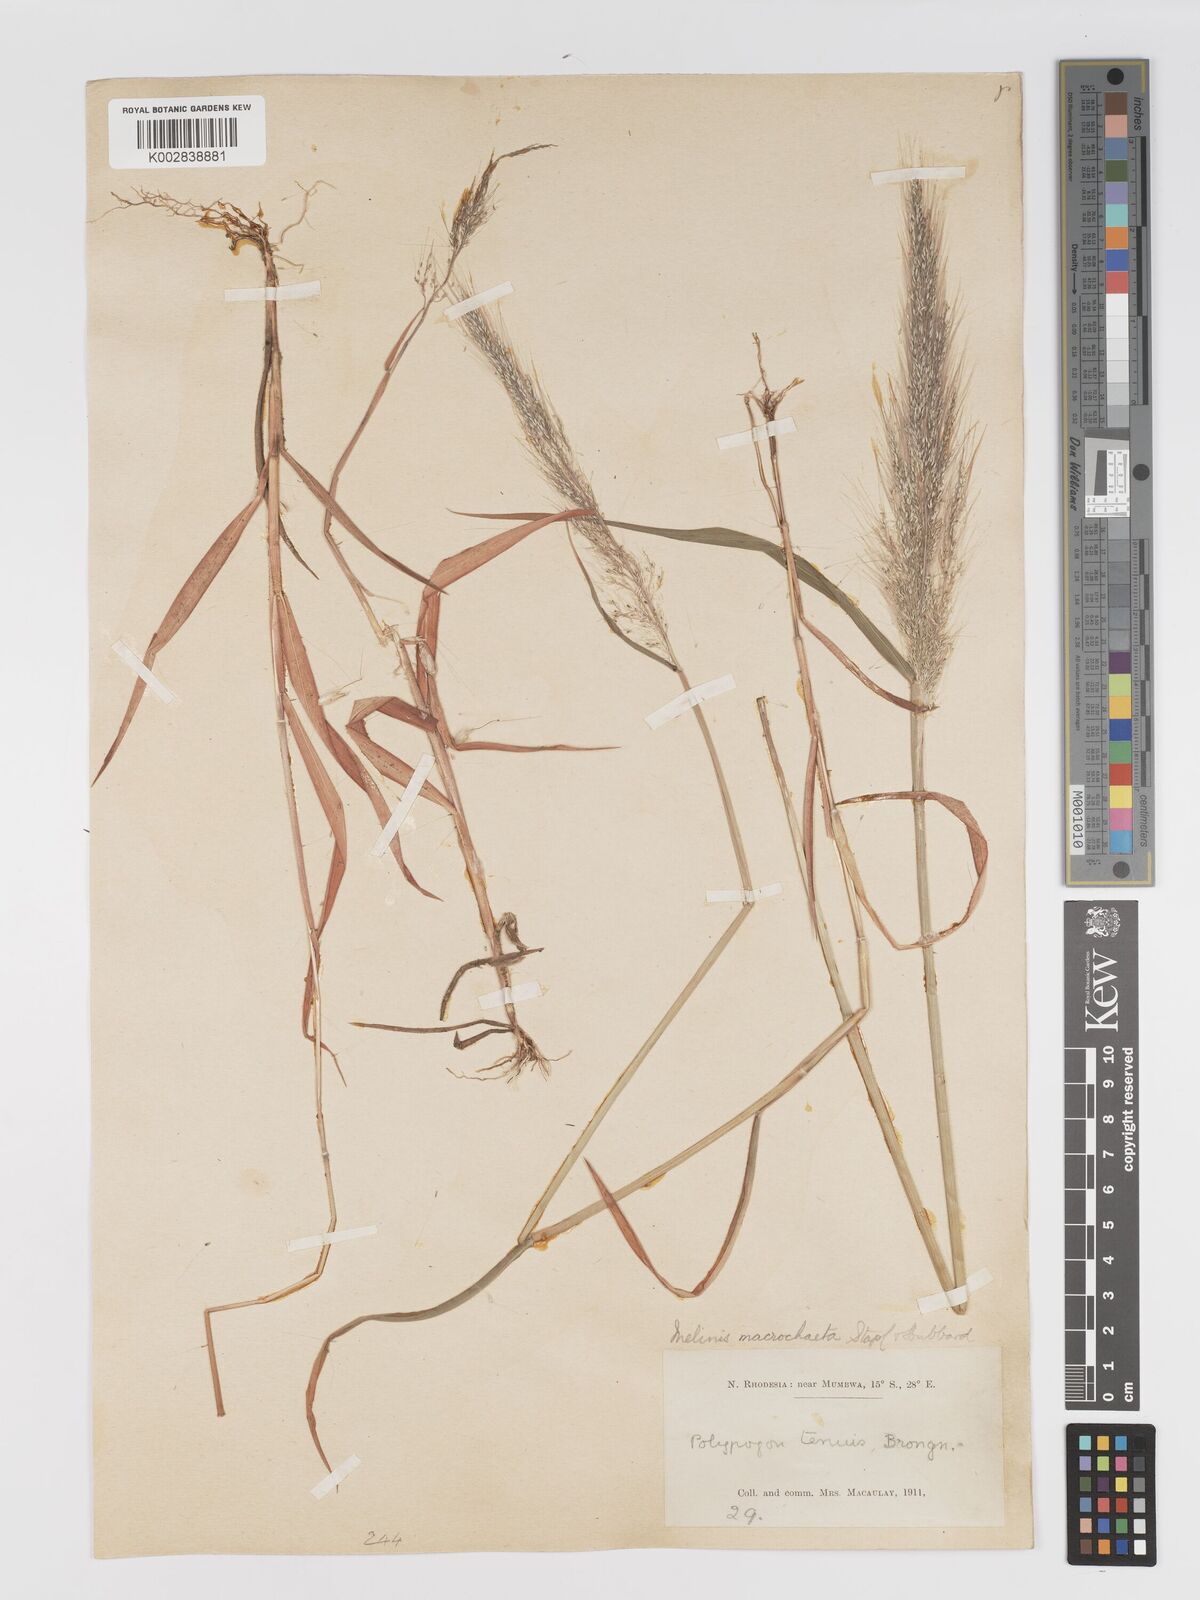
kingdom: Plantae
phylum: Tracheophyta
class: Liliopsida
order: Poales
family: Poaceae
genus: Melinis
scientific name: Melinis macrochaeta
